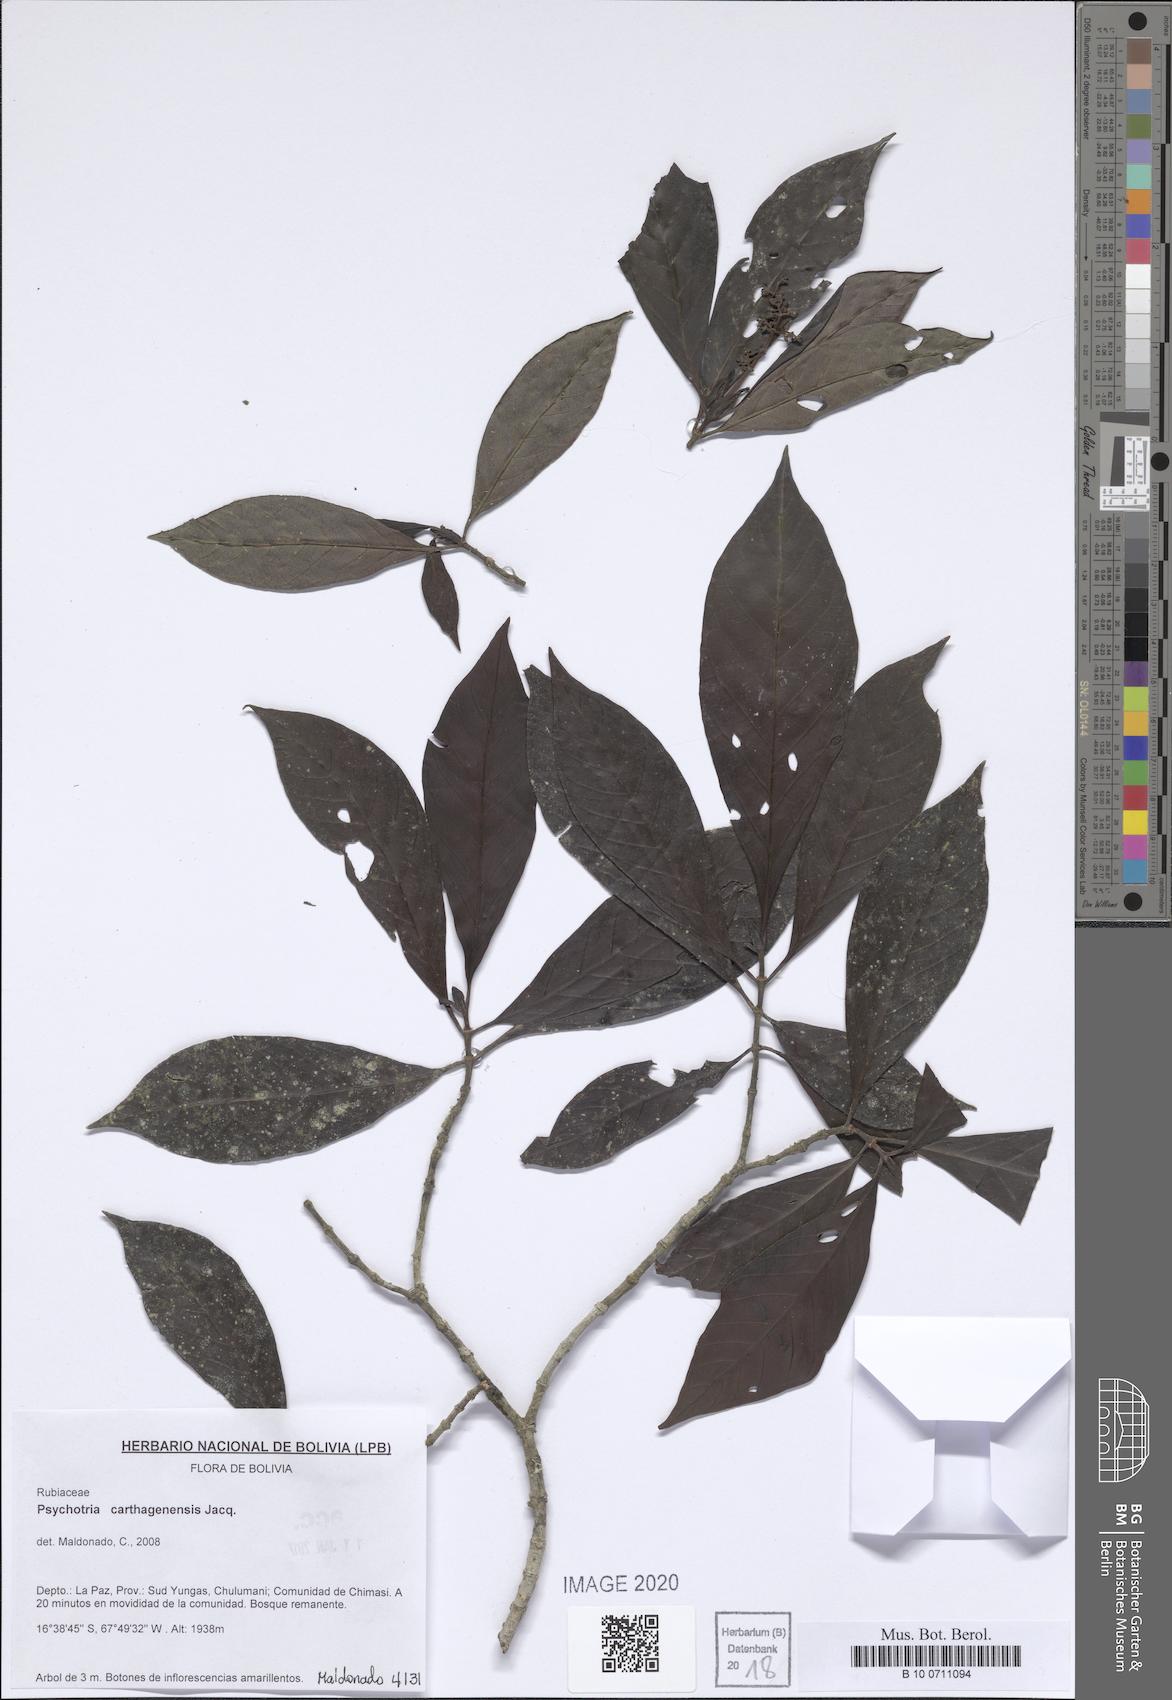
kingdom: Plantae
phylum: Tracheophyta
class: Magnoliopsida
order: Gentianales
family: Rubiaceae
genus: Psychotria
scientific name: Psychotria carthagenensis
